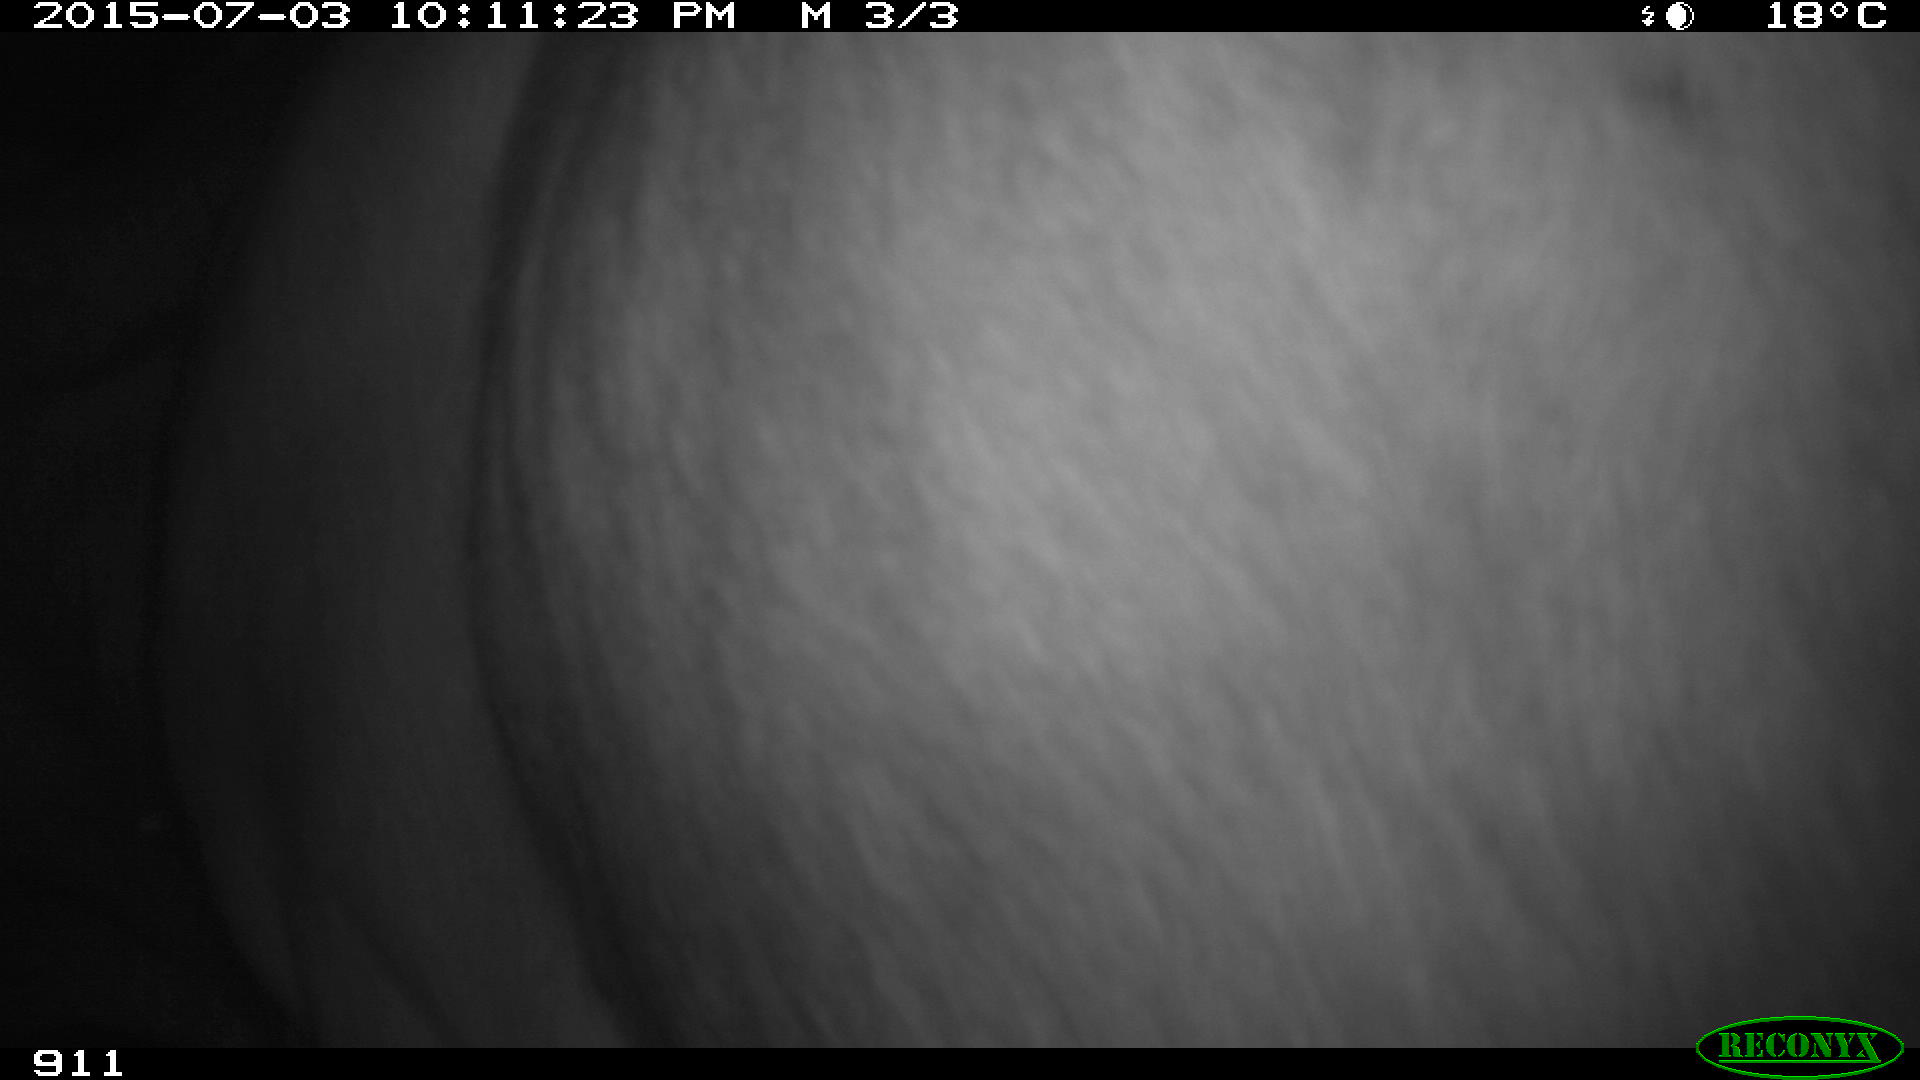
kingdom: Animalia
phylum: Chordata
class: Mammalia
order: Artiodactyla
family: Bovidae
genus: Bos
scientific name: Bos taurus
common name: Domesticated cattle
